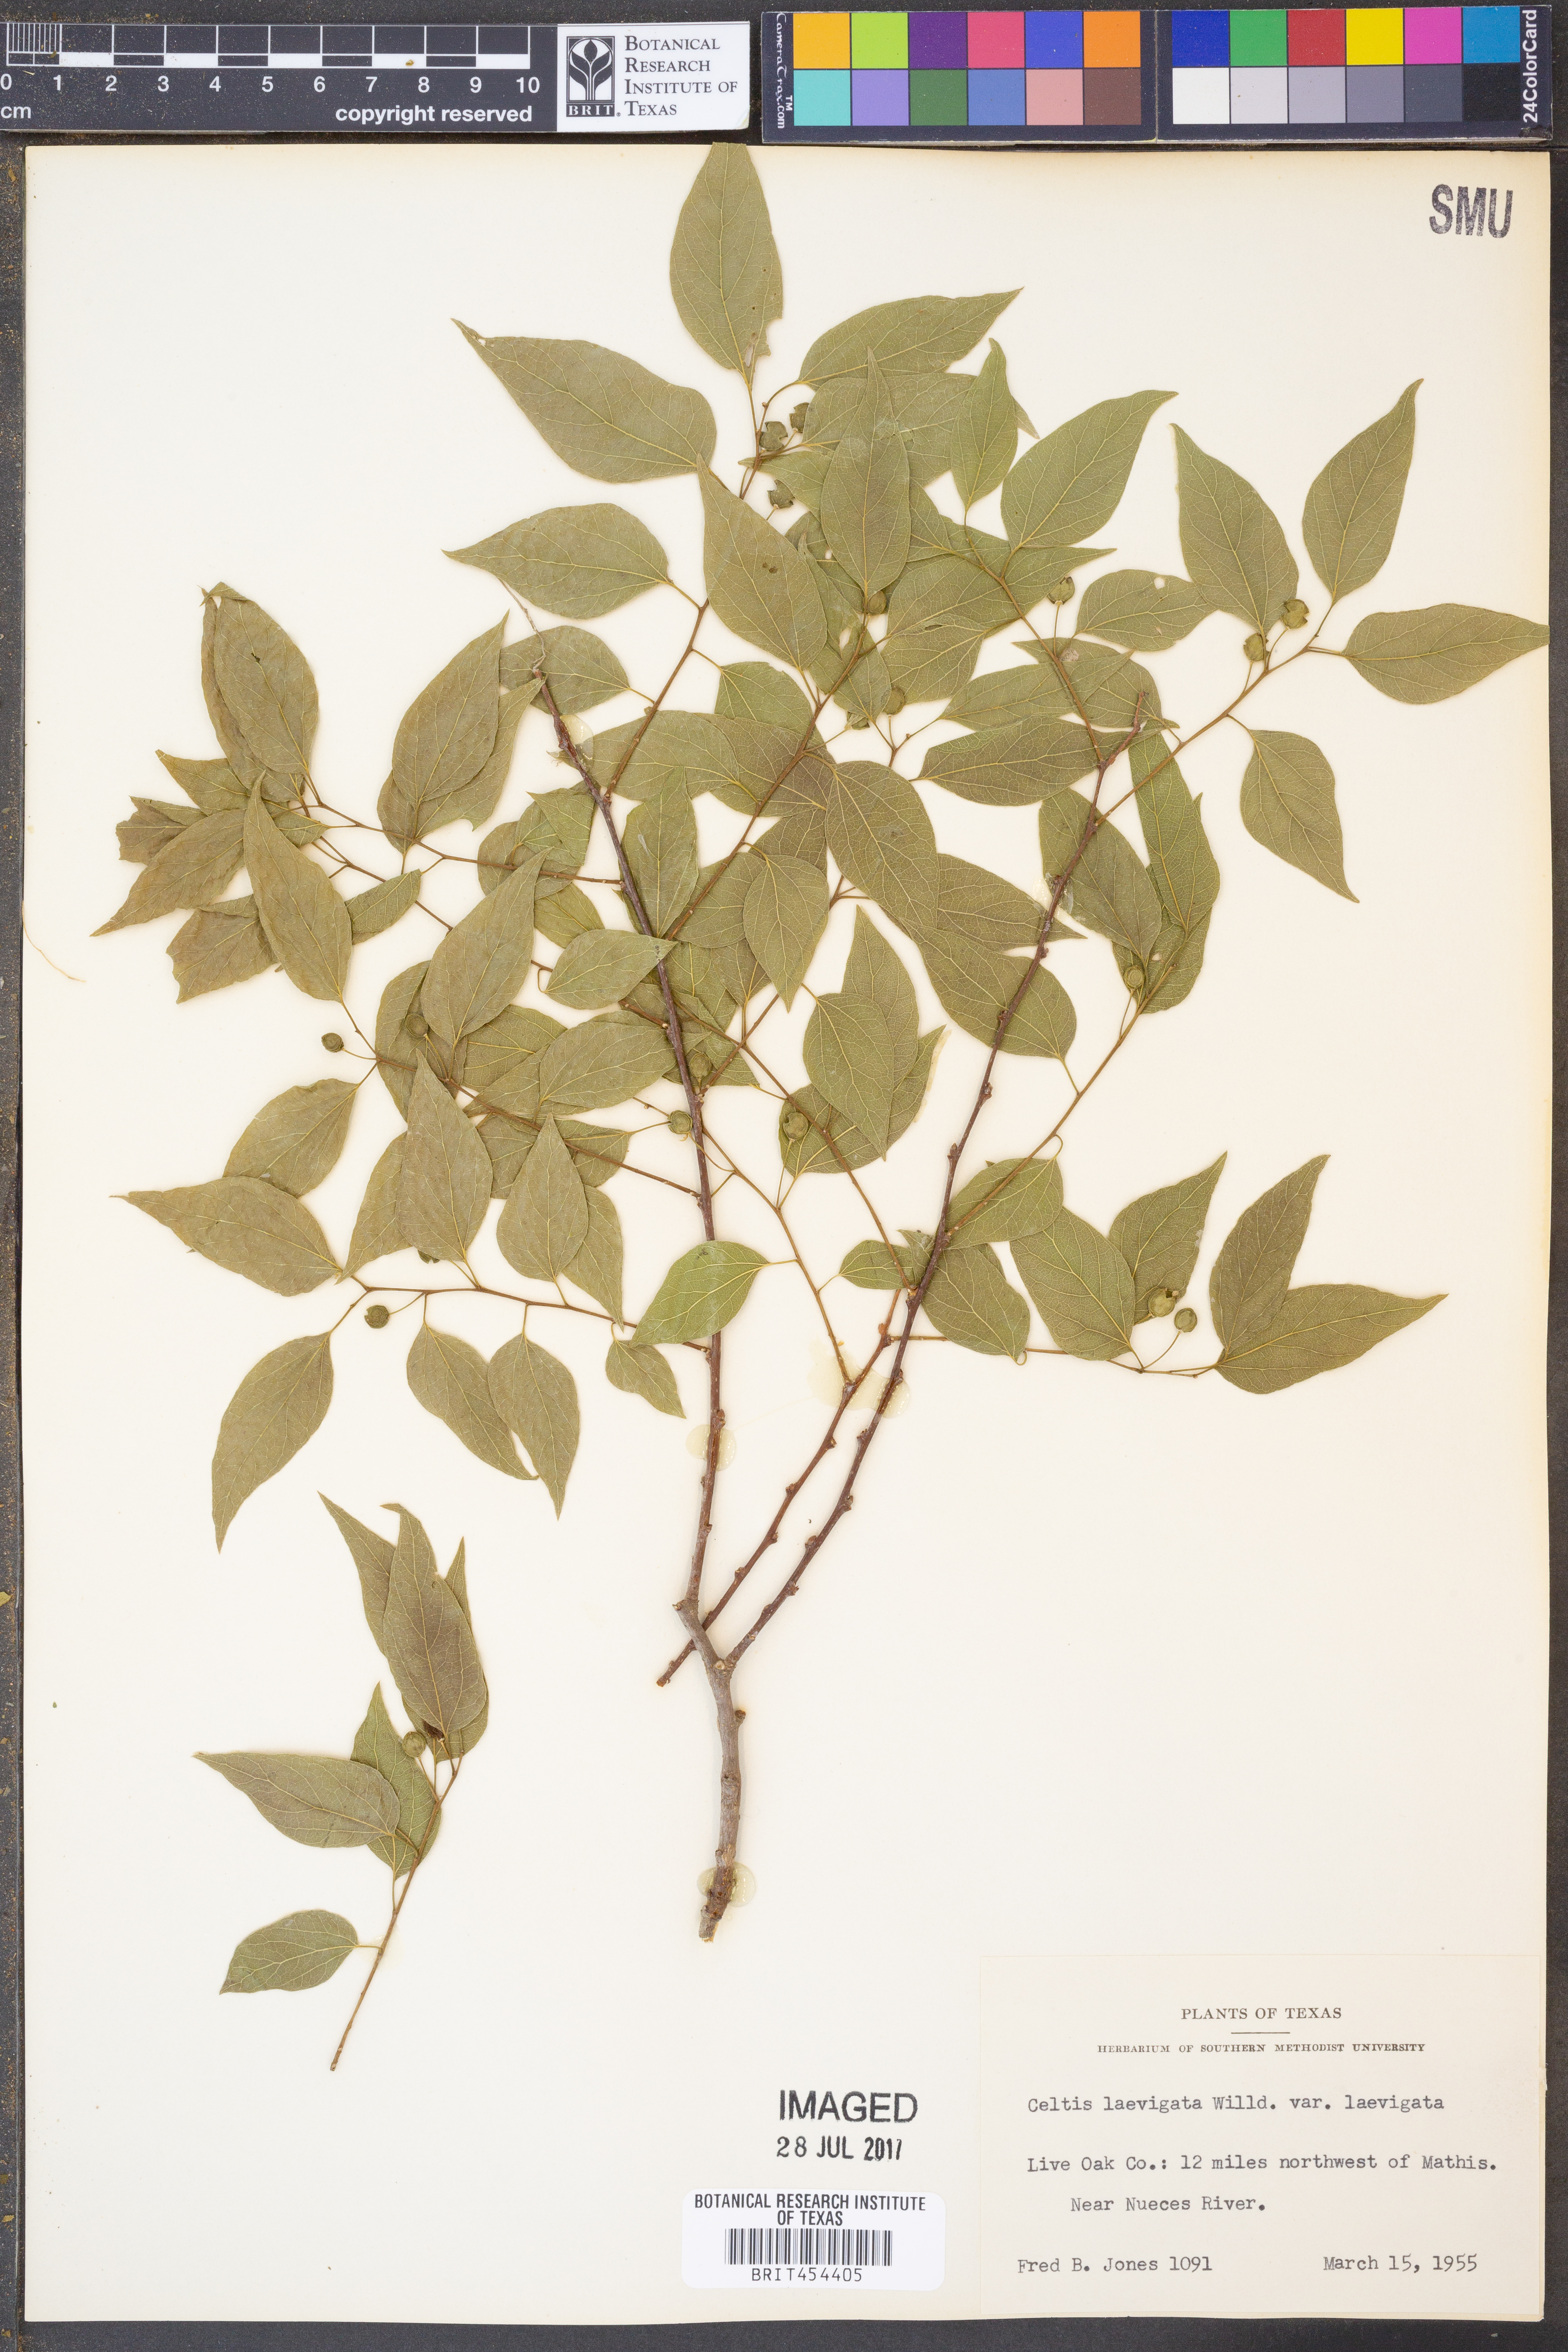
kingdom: Plantae
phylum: Tracheophyta
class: Magnoliopsida
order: Rosales
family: Cannabaceae
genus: Celtis
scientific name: Celtis laevigata
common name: Sugarberry
